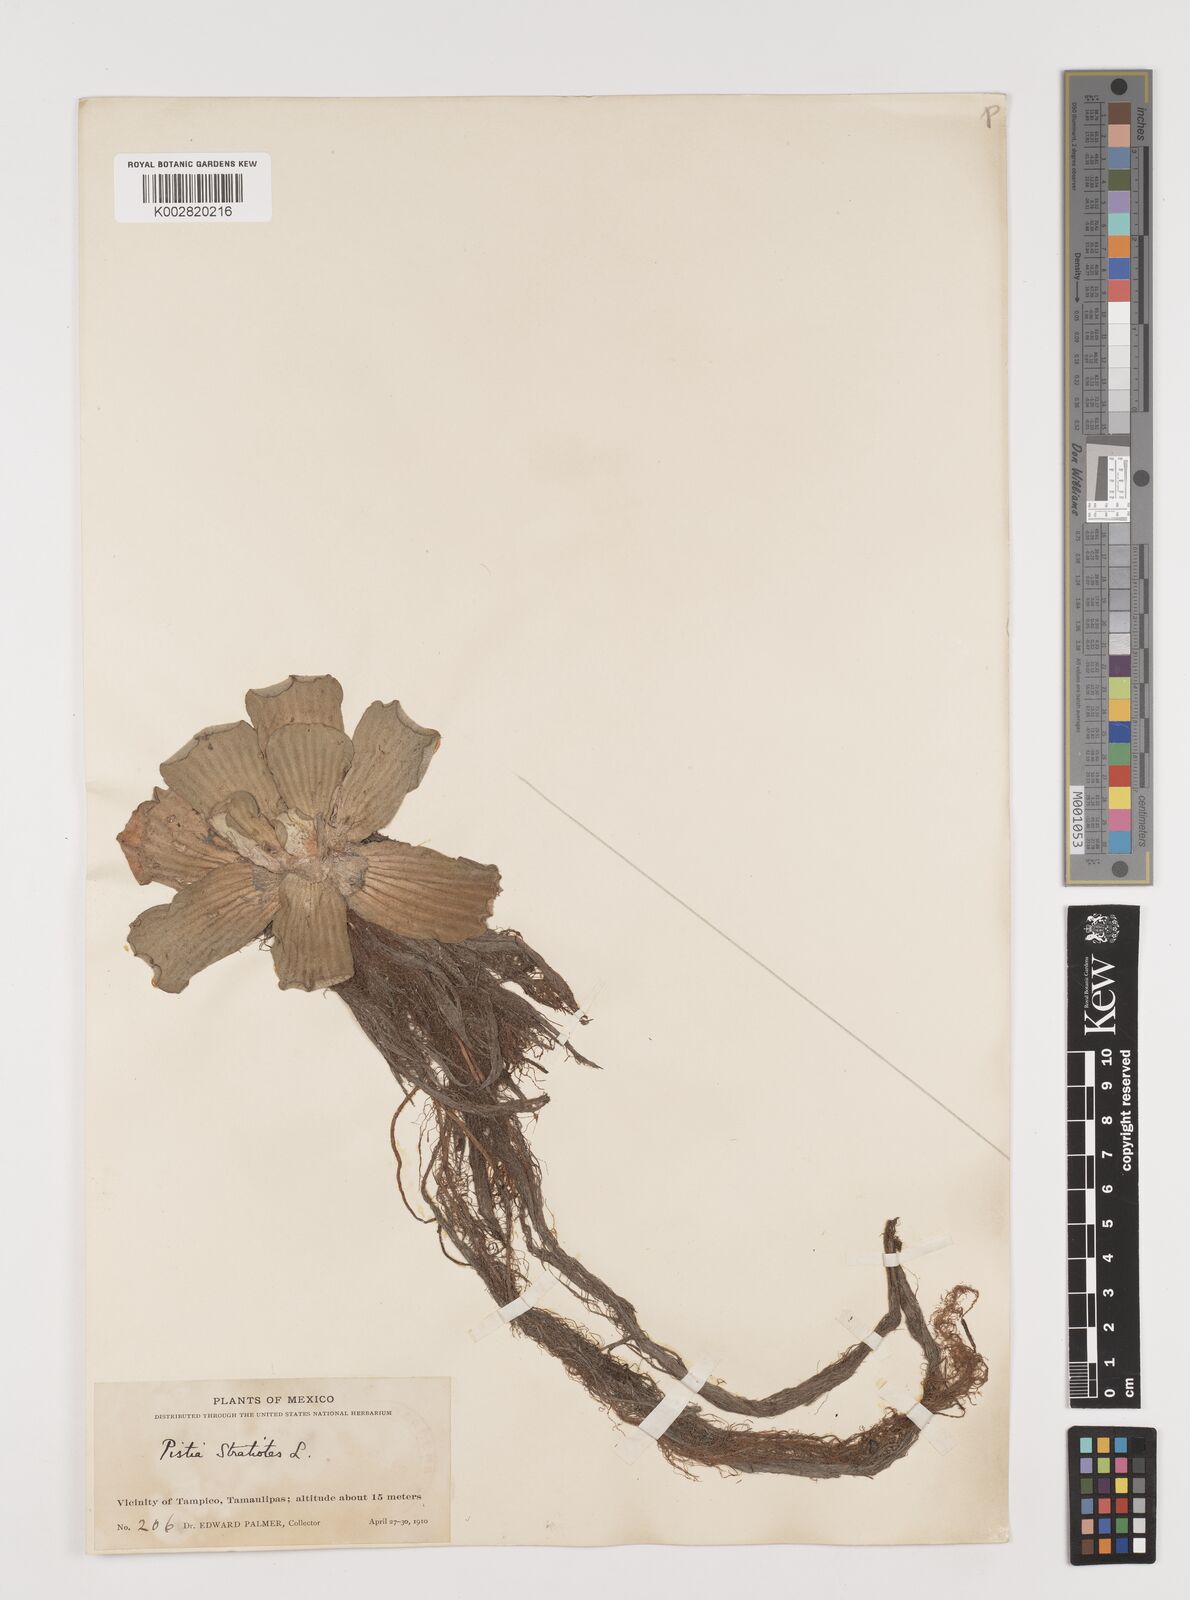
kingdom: Plantae
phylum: Tracheophyta
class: Liliopsida
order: Alismatales
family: Araceae
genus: Pistia
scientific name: Pistia stratiotes
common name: Water lettuce
